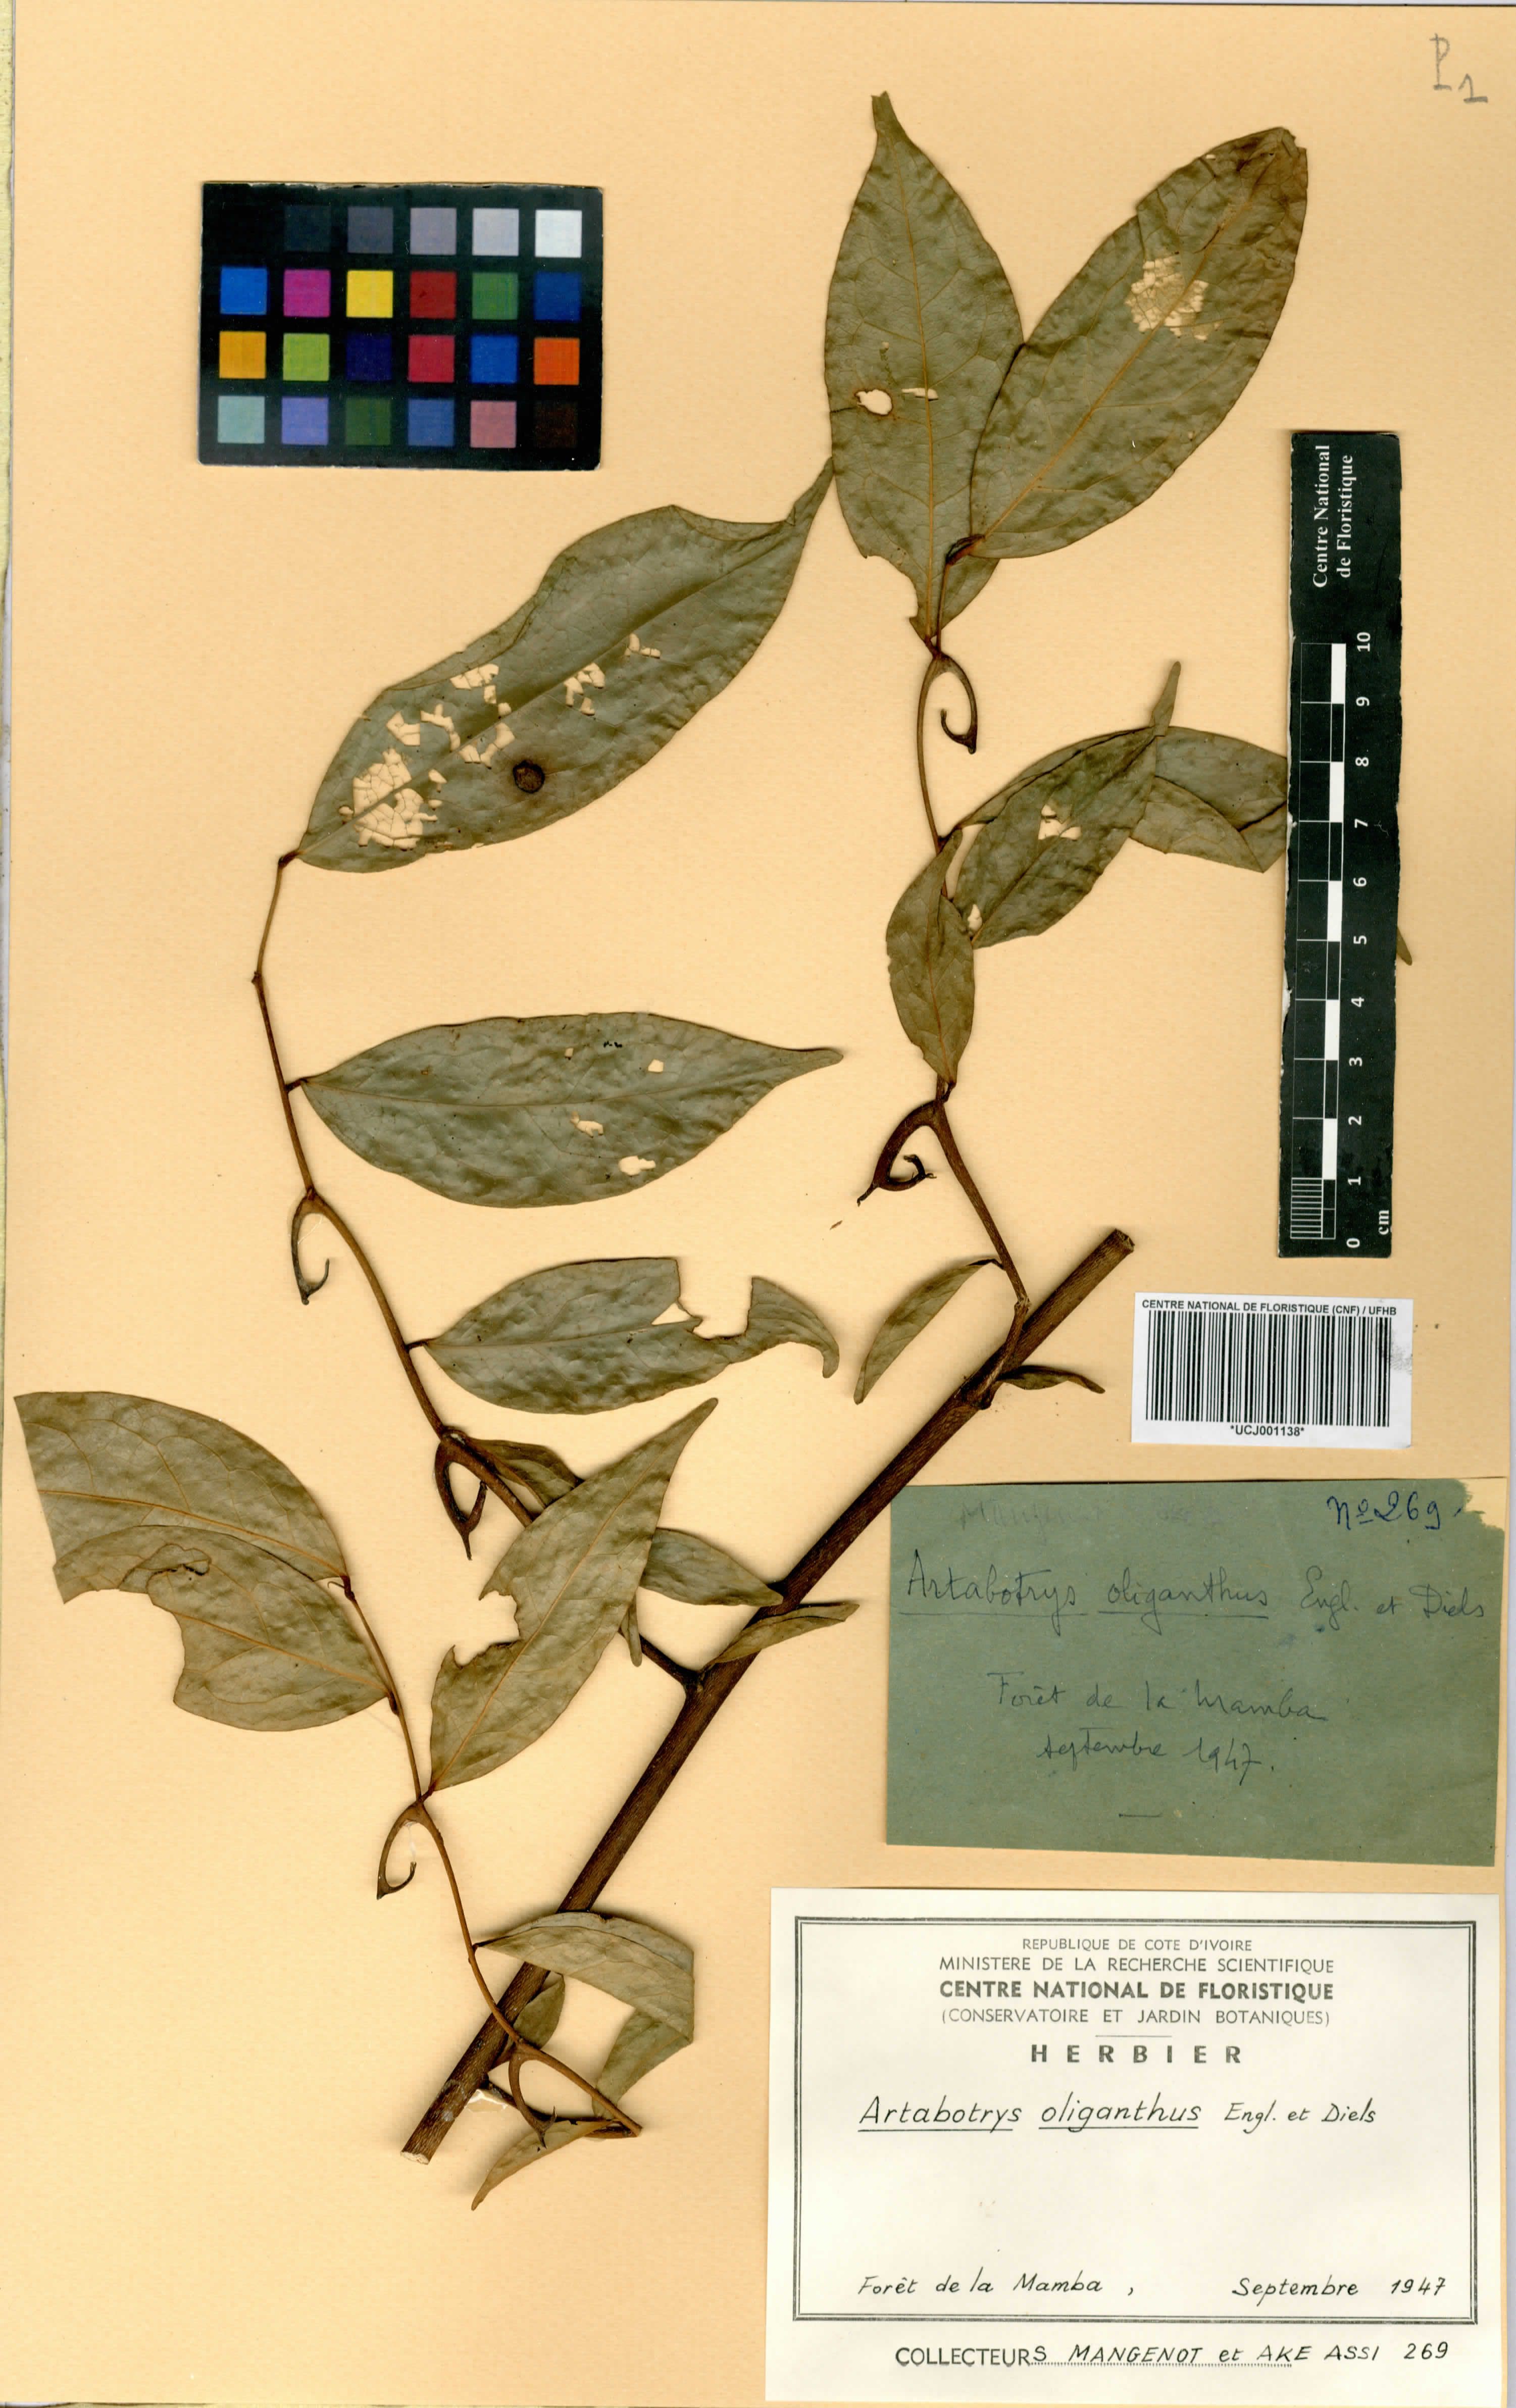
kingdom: Plantae
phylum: Tracheophyta
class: Magnoliopsida
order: Magnoliales
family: Annonaceae
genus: Artabotrys
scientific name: Artabotrys oliganthus
